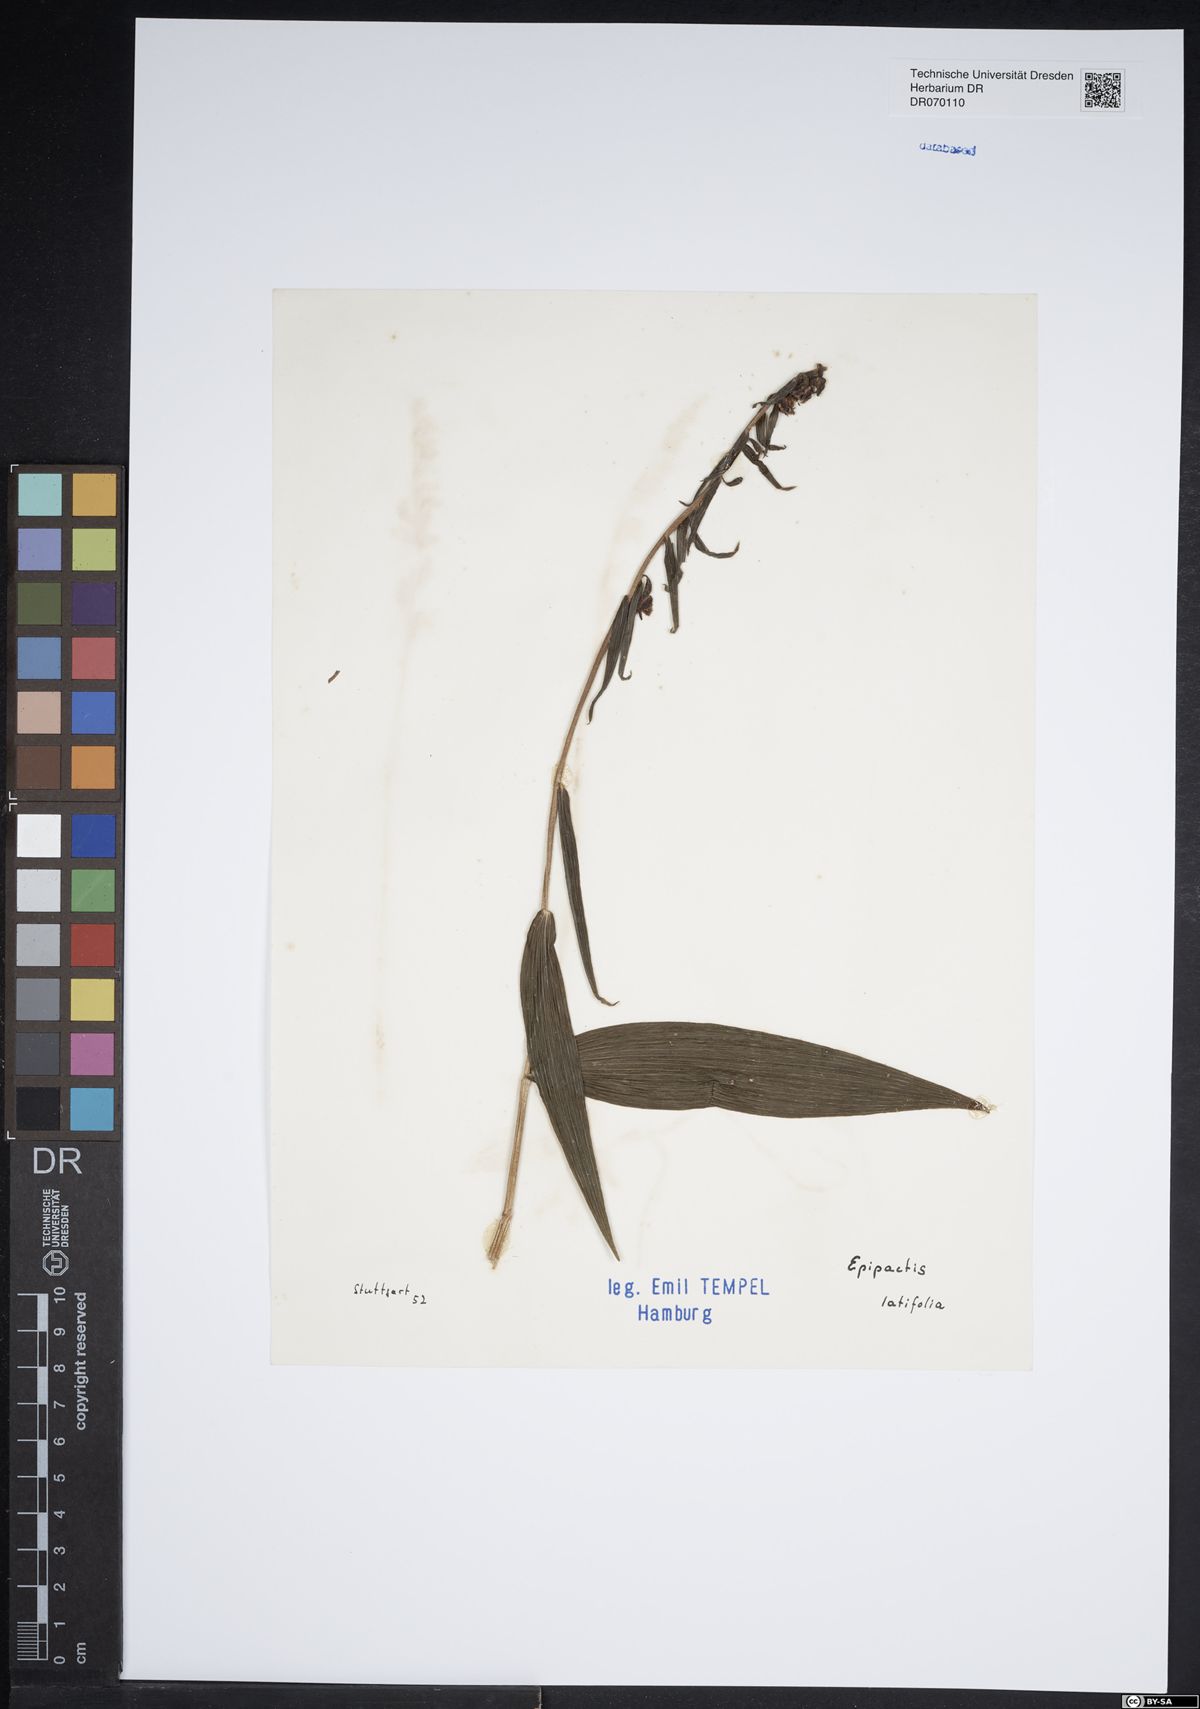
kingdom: Plantae
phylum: Tracheophyta
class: Liliopsida
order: Asparagales
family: Orchidaceae
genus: Epipactis
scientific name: Epipactis helleborine
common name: Broad-leaved helleborine
